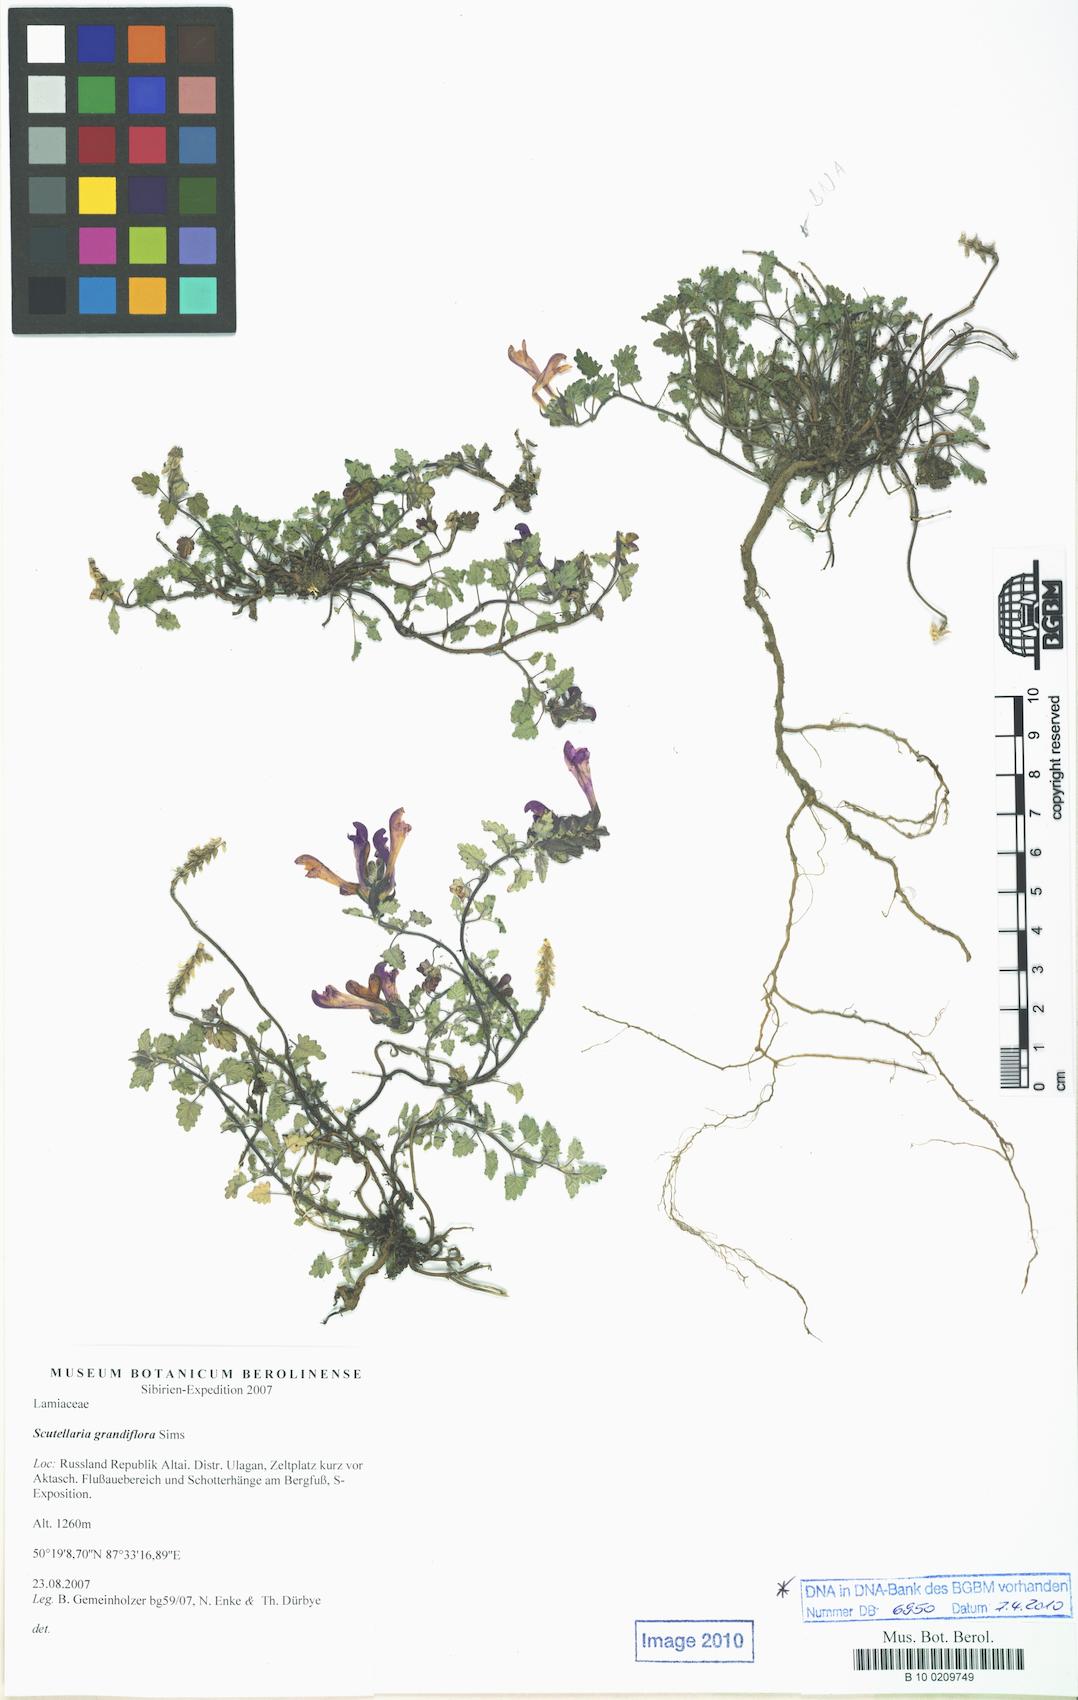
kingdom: Plantae
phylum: Tracheophyta
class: Magnoliopsida
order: Lamiales
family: Lamiaceae
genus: Scutellaria
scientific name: Scutellaria prostrata
